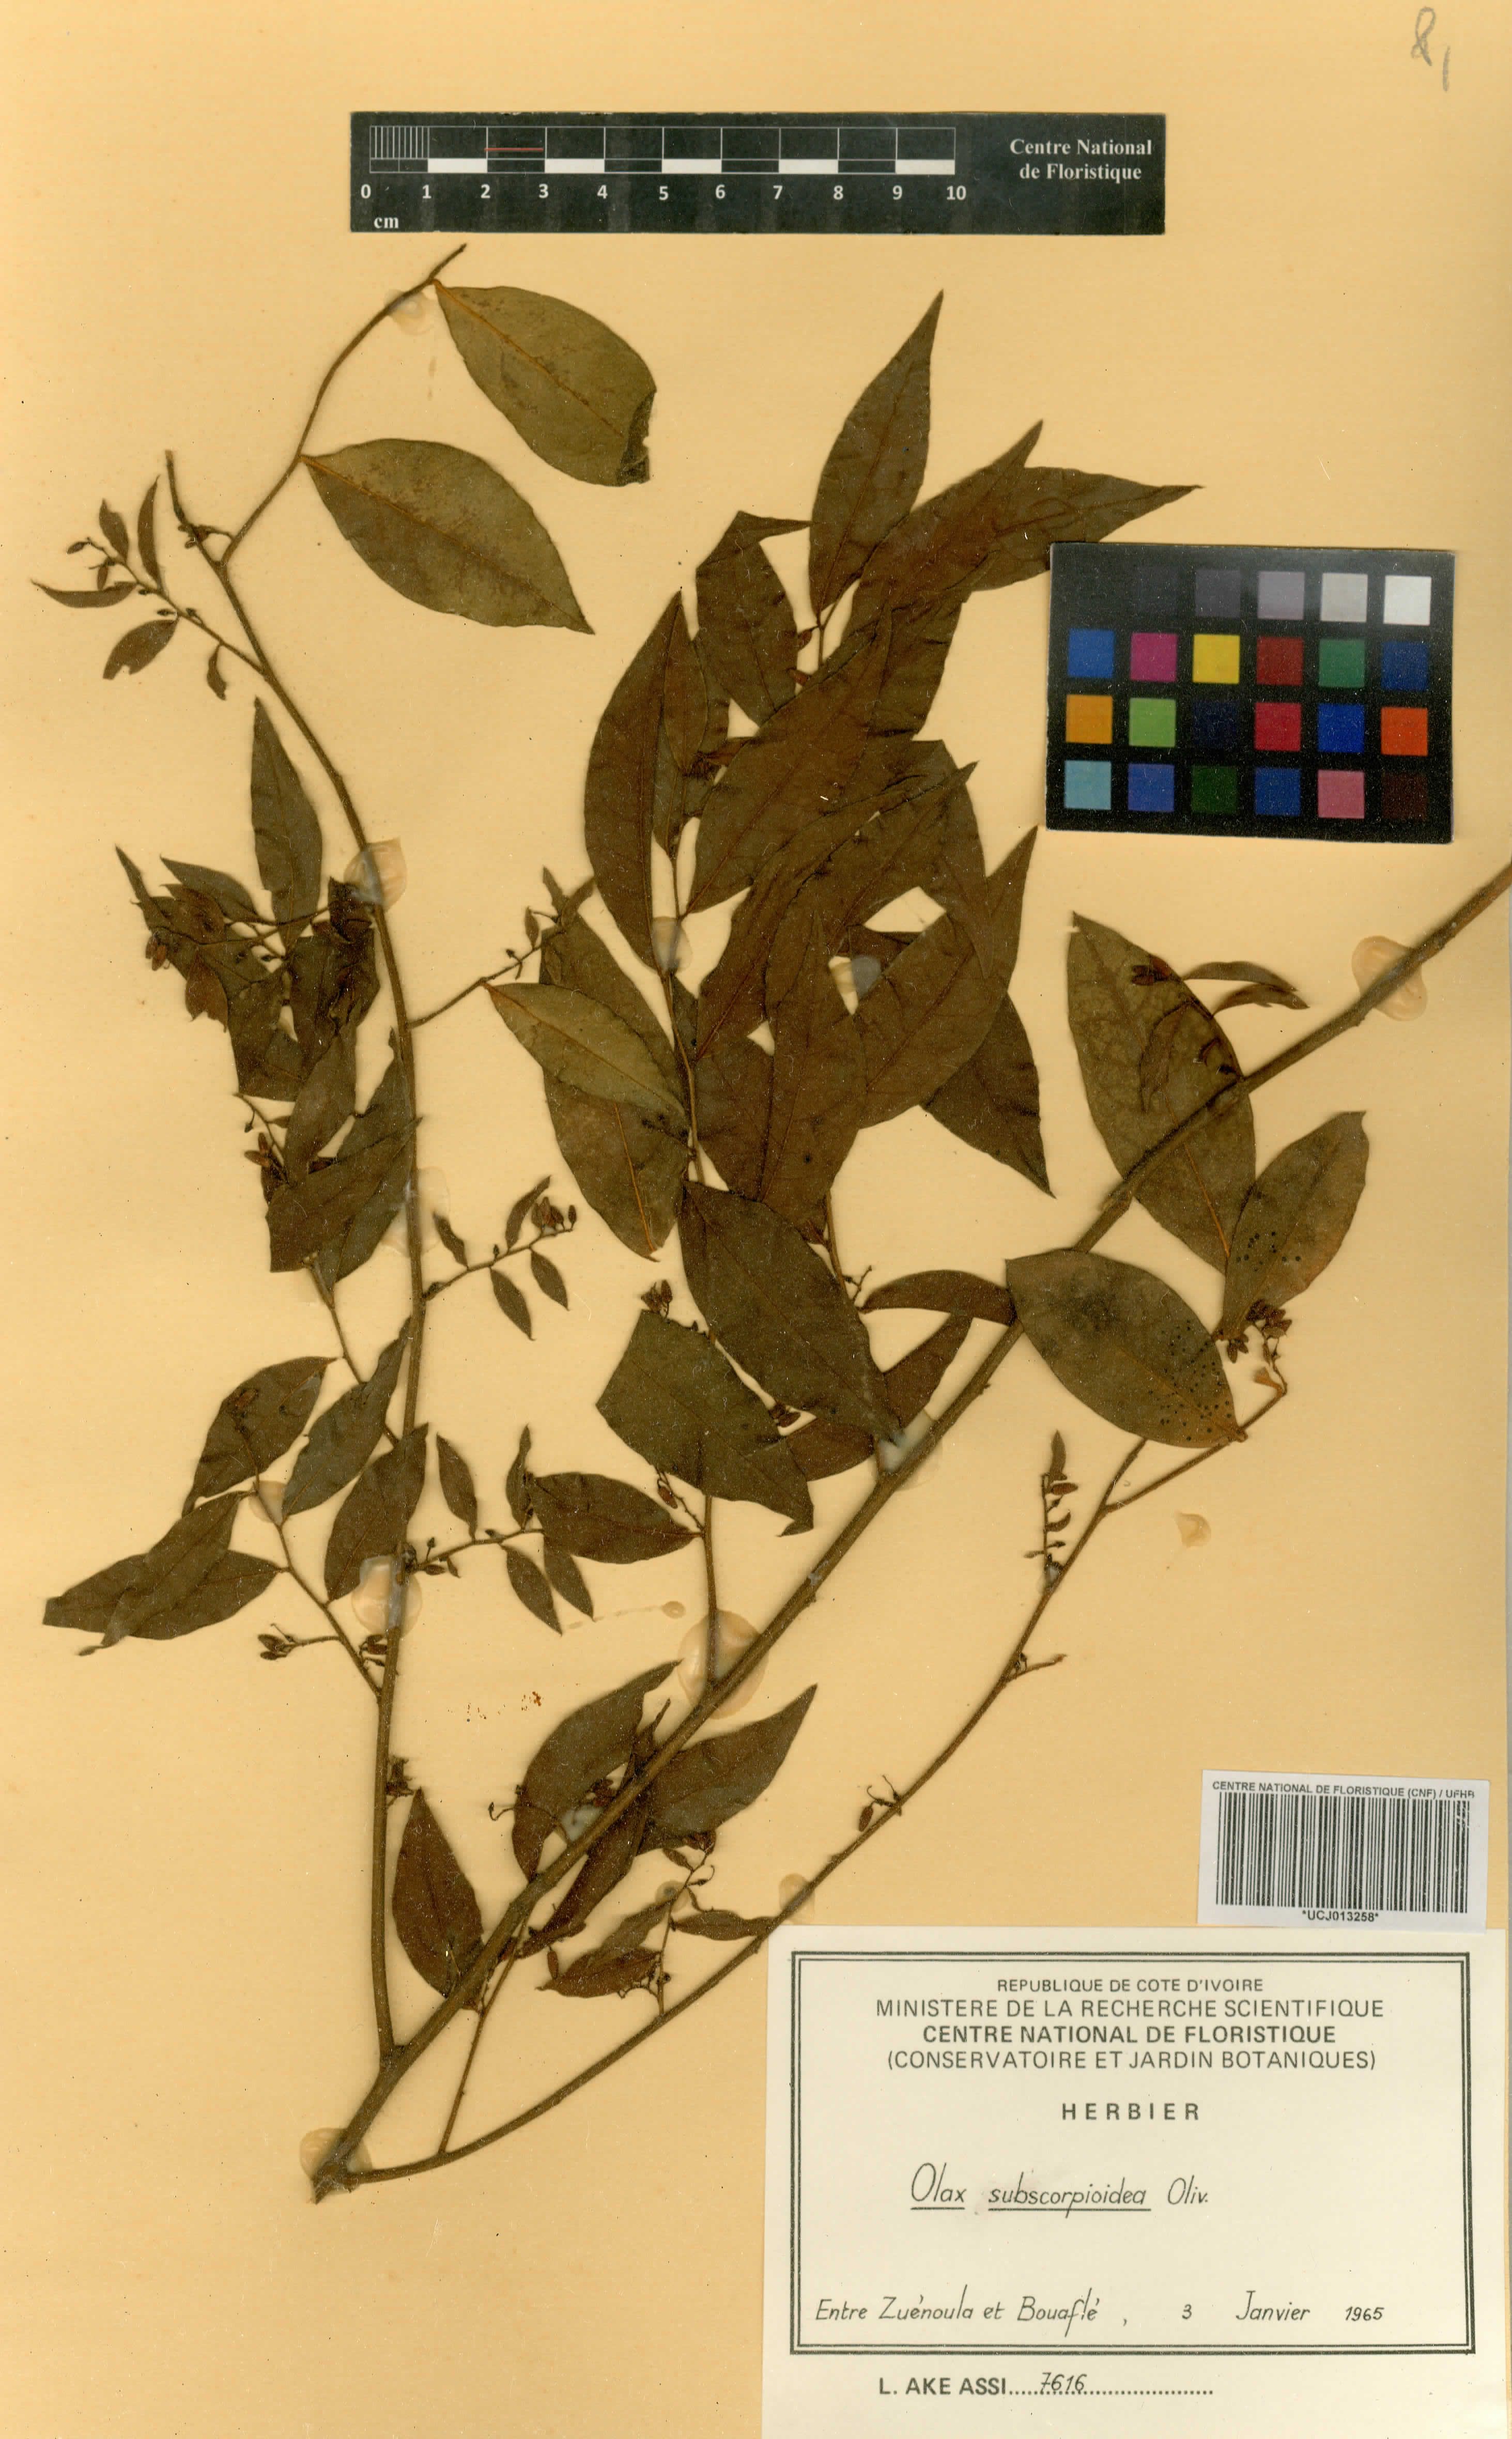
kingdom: Plantae
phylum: Tracheophyta
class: Magnoliopsida
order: Santalales
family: Olacaceae
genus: Olax
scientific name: Olax subscorpioides
